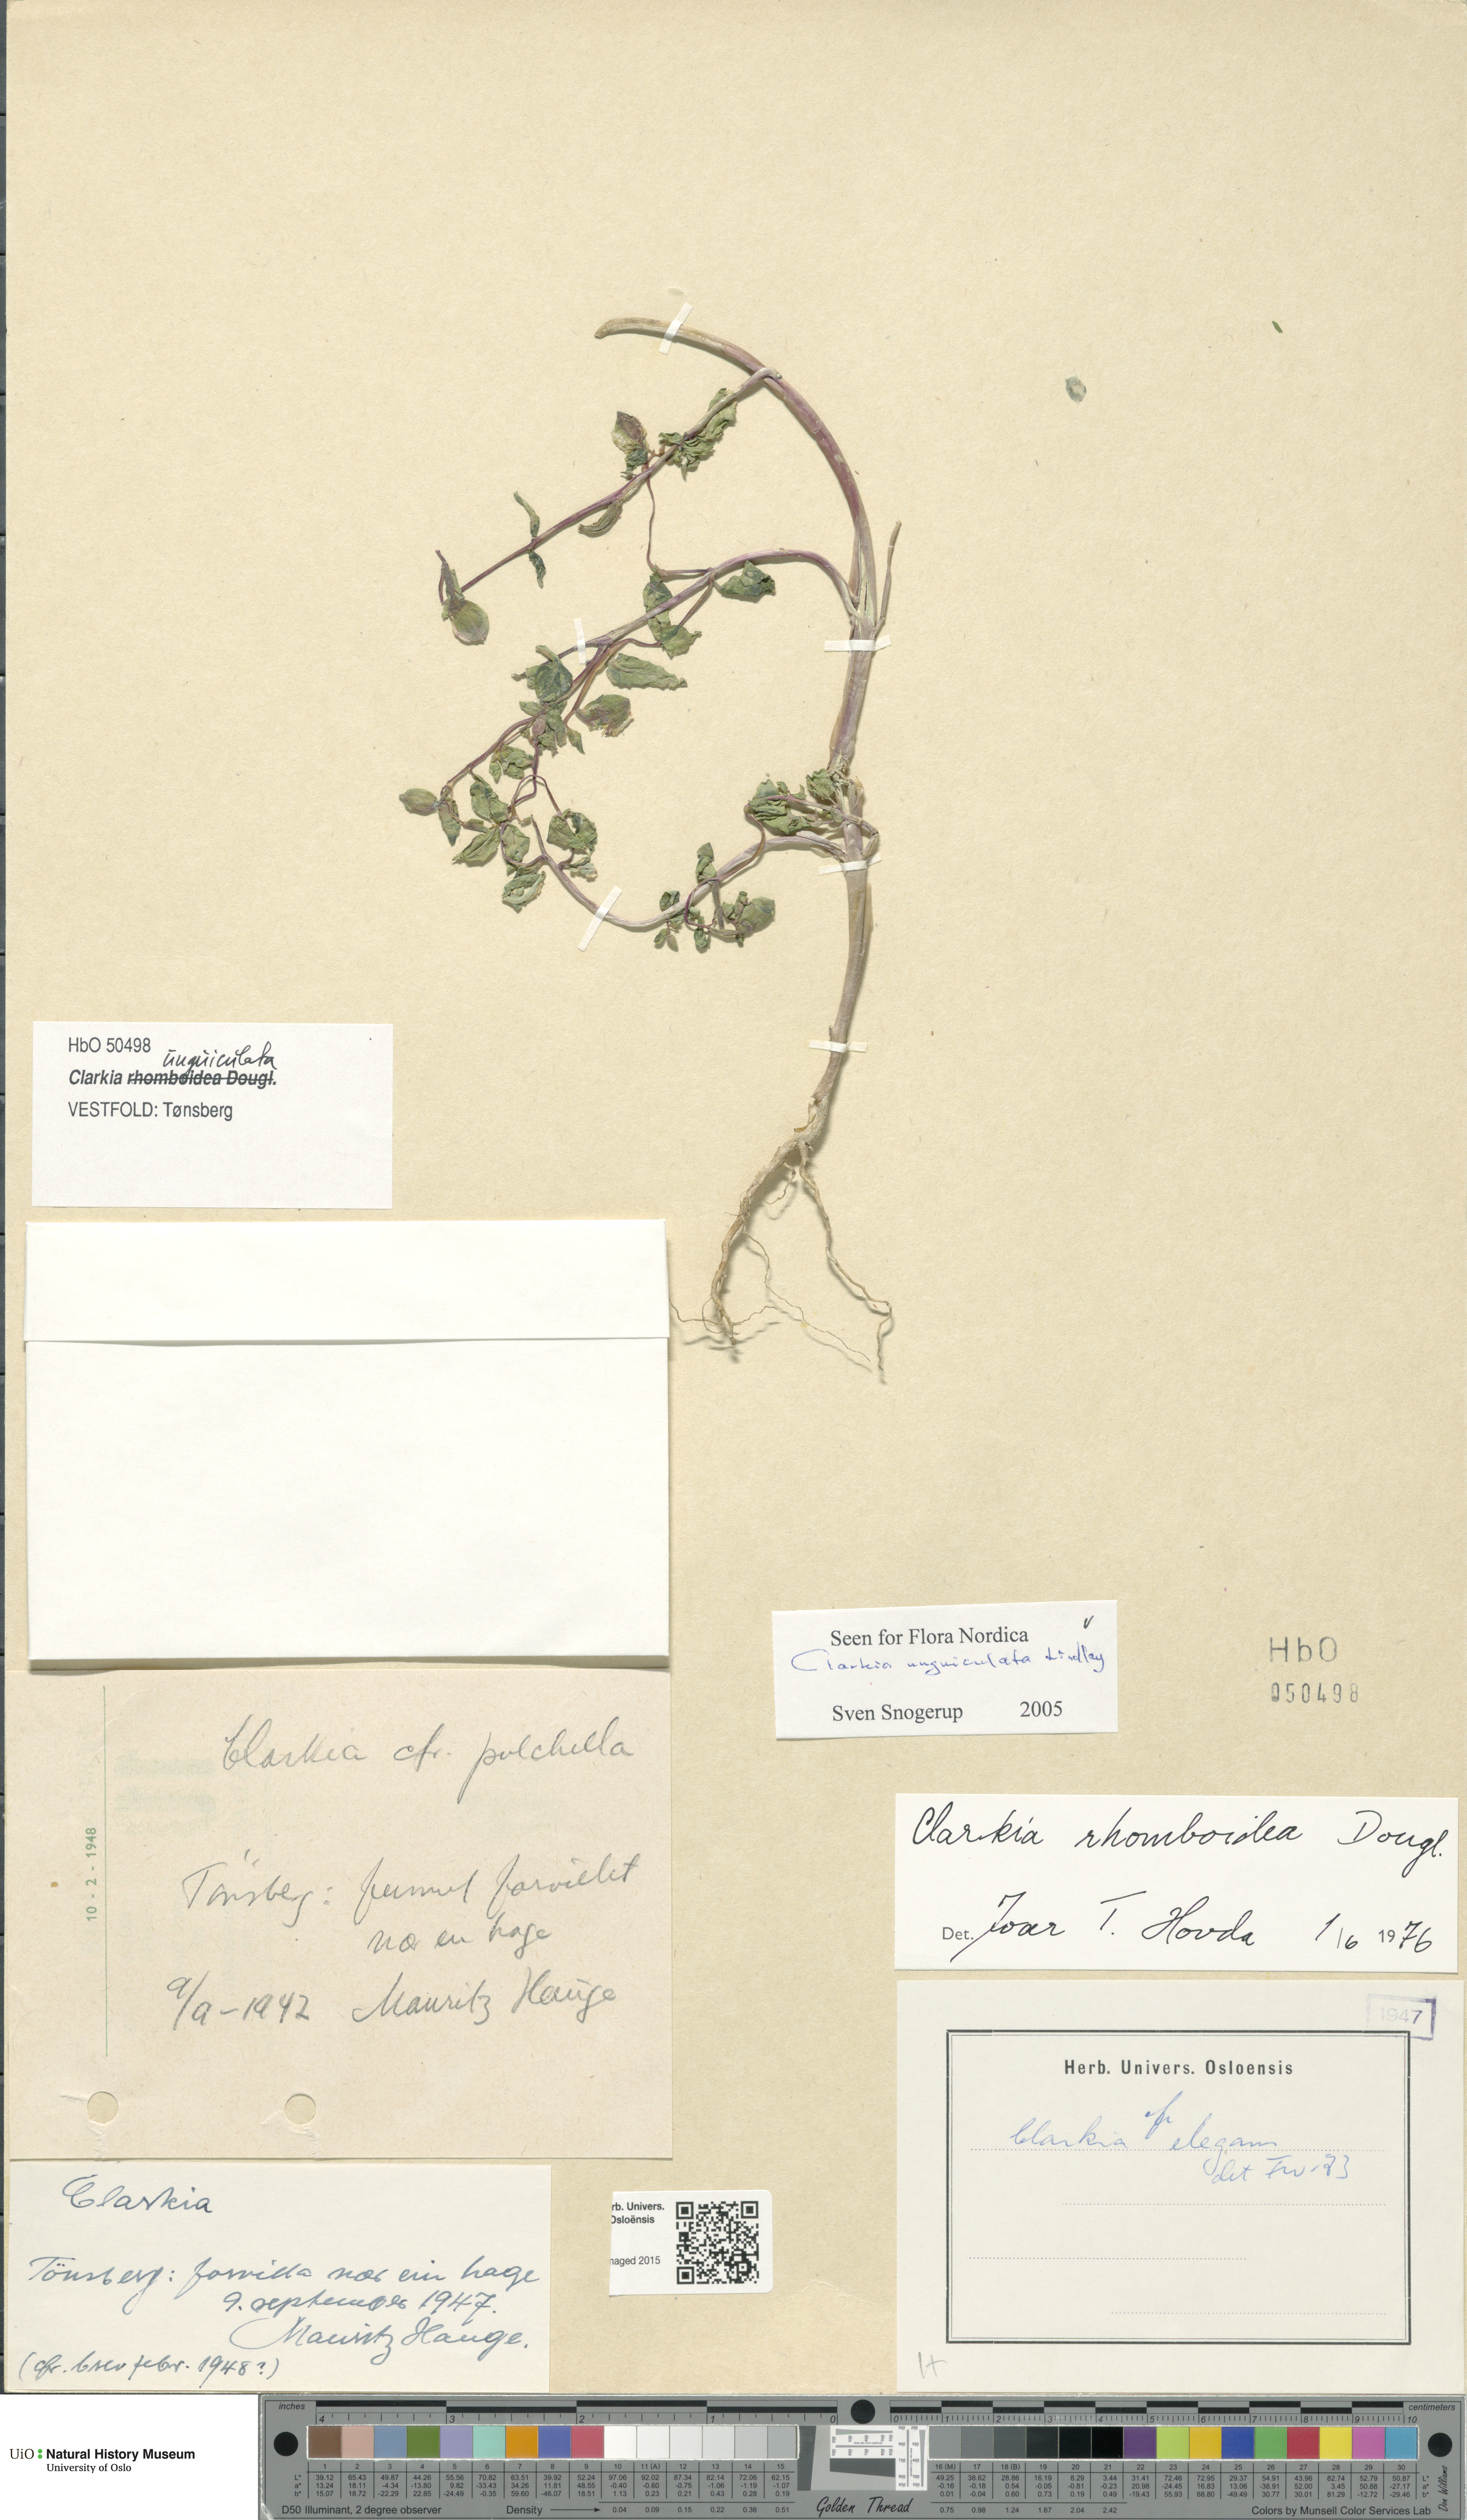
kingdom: Plantae
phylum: Tracheophyta
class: Magnoliopsida
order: Myrtales
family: Onagraceae
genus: Clarkia
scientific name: Clarkia unguiculata
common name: Clarkia
